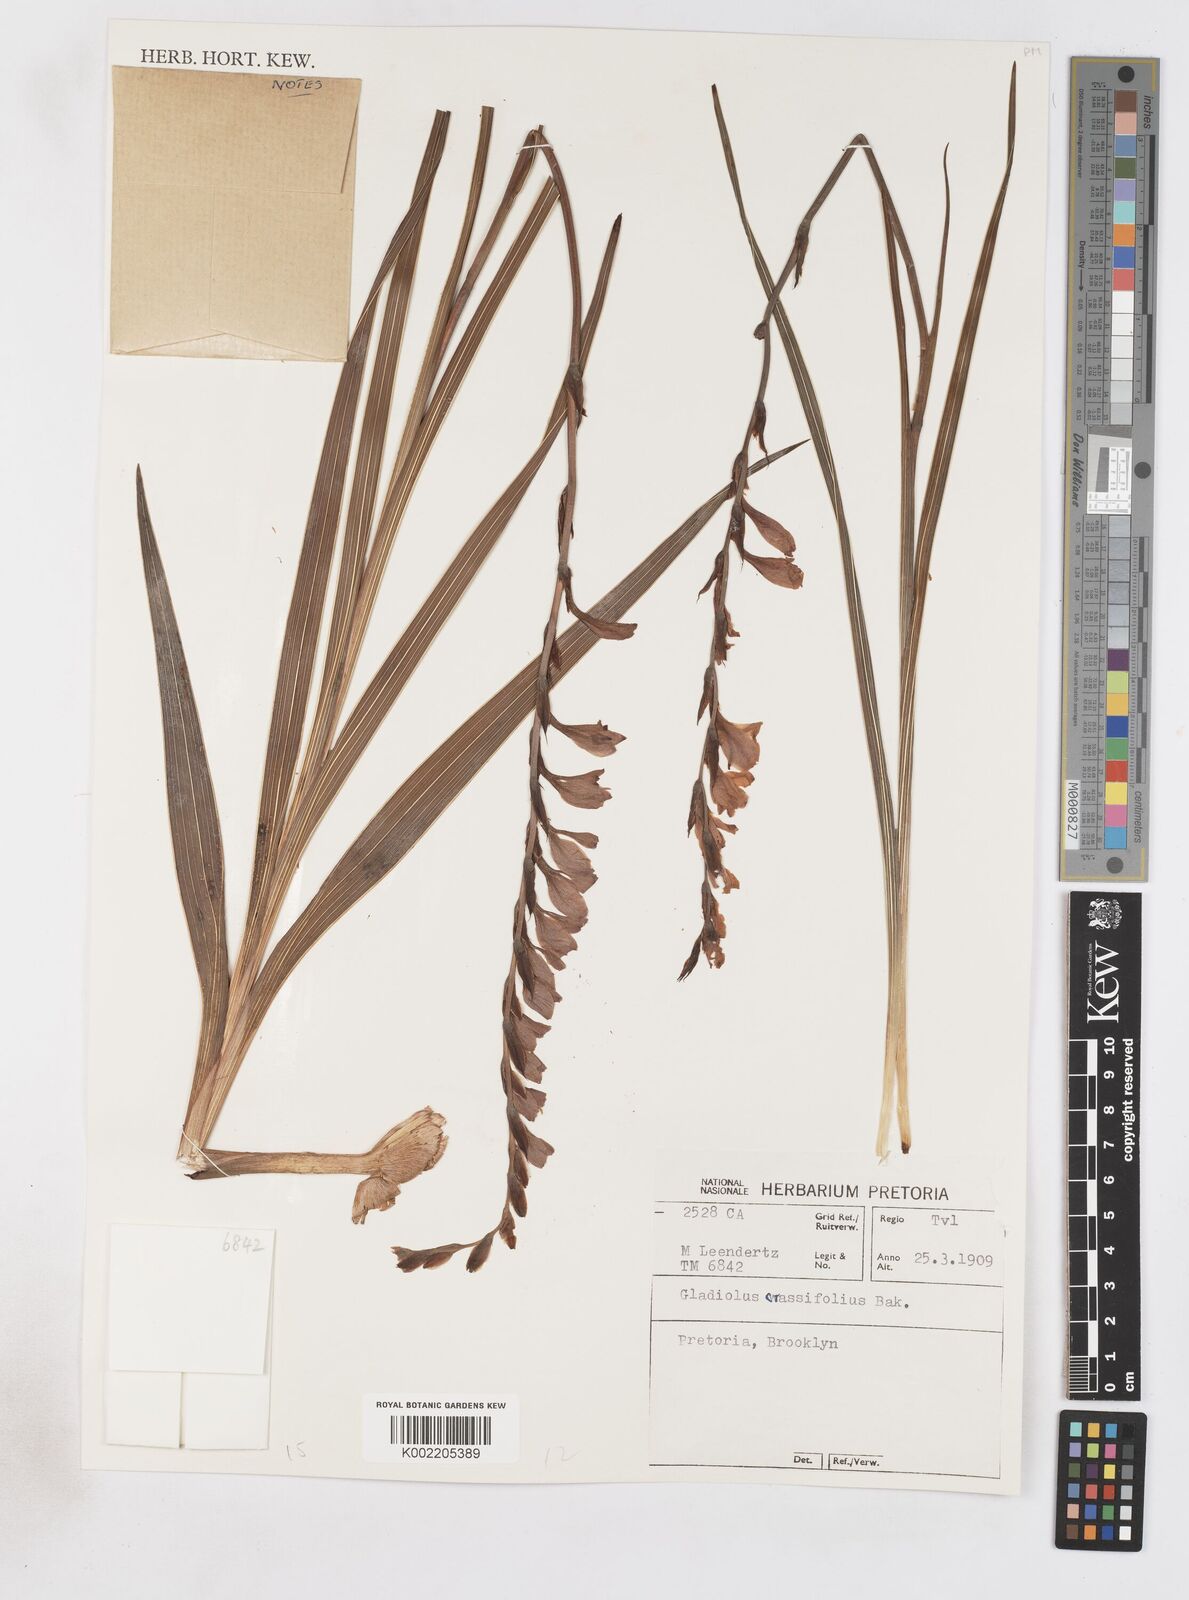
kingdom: Plantae
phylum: Tracheophyta
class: Liliopsida
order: Asparagales
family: Iridaceae
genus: Gladiolus
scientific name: Gladiolus crassifolius
